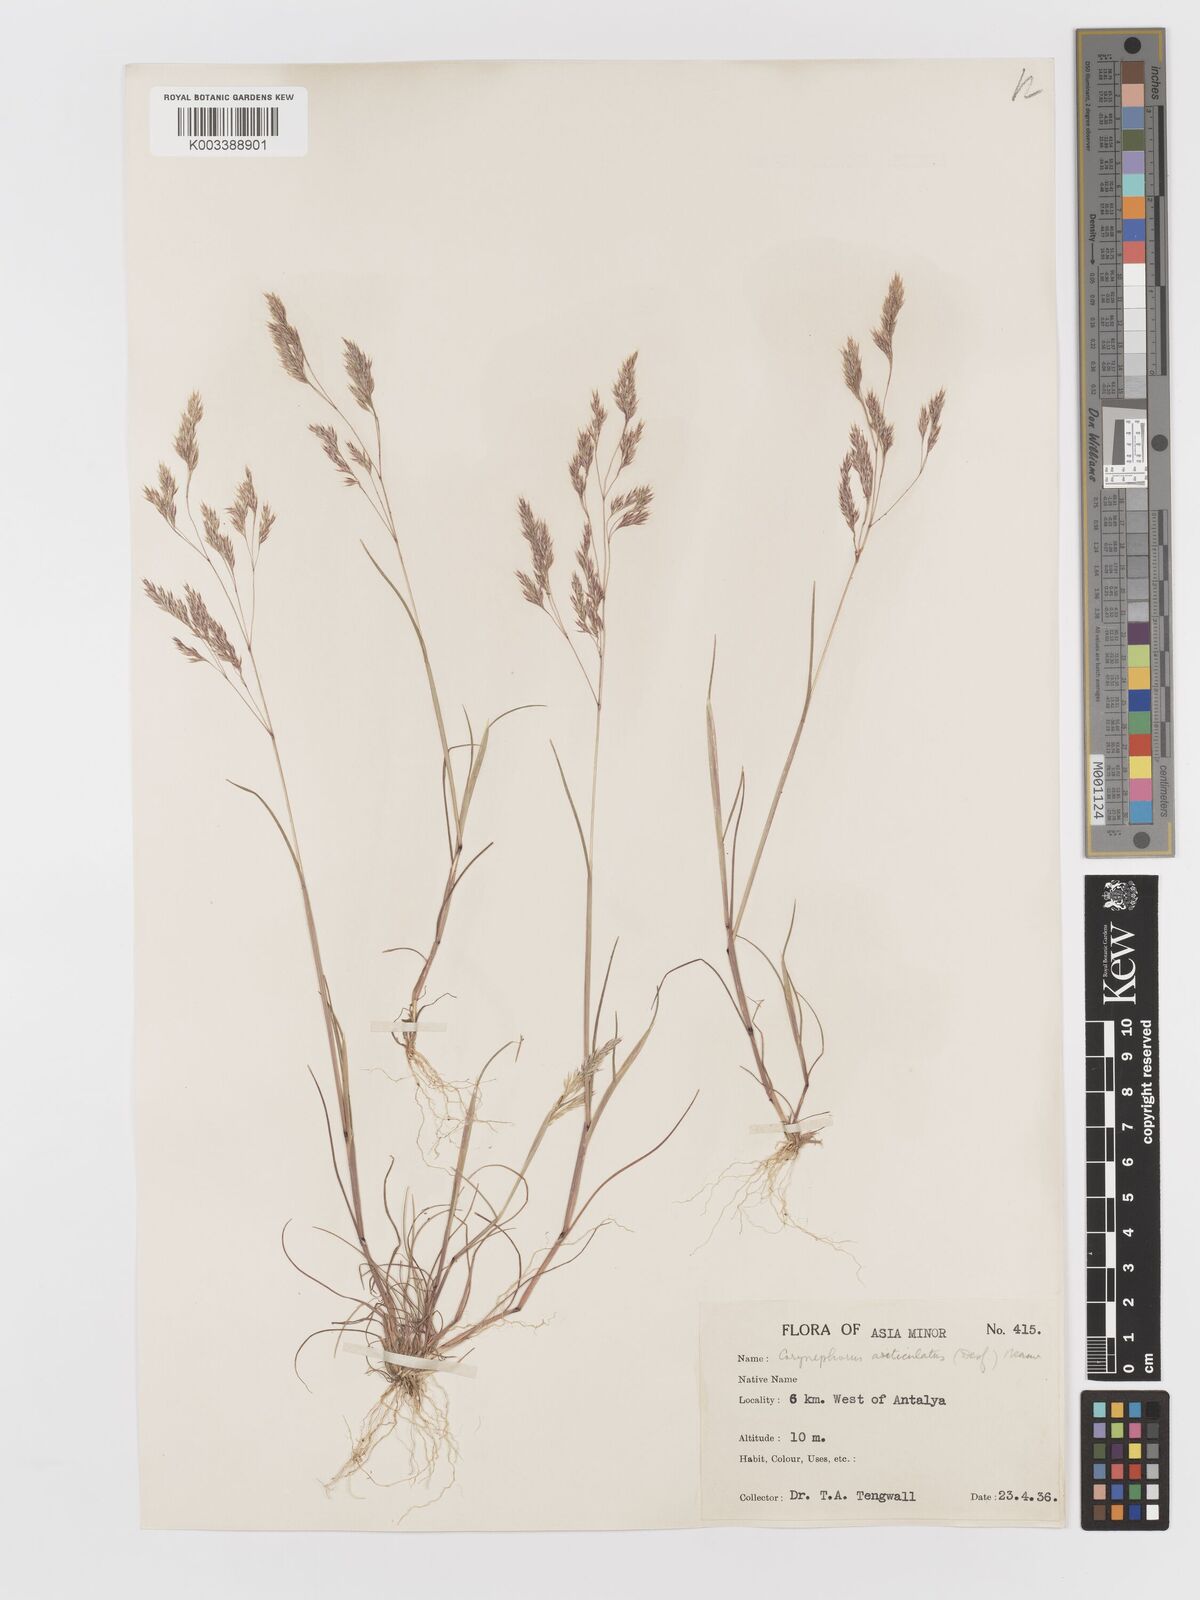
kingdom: Plantae
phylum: Tracheophyta
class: Liliopsida
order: Poales
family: Poaceae
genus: Corynephorus
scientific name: Corynephorus divaricatus
